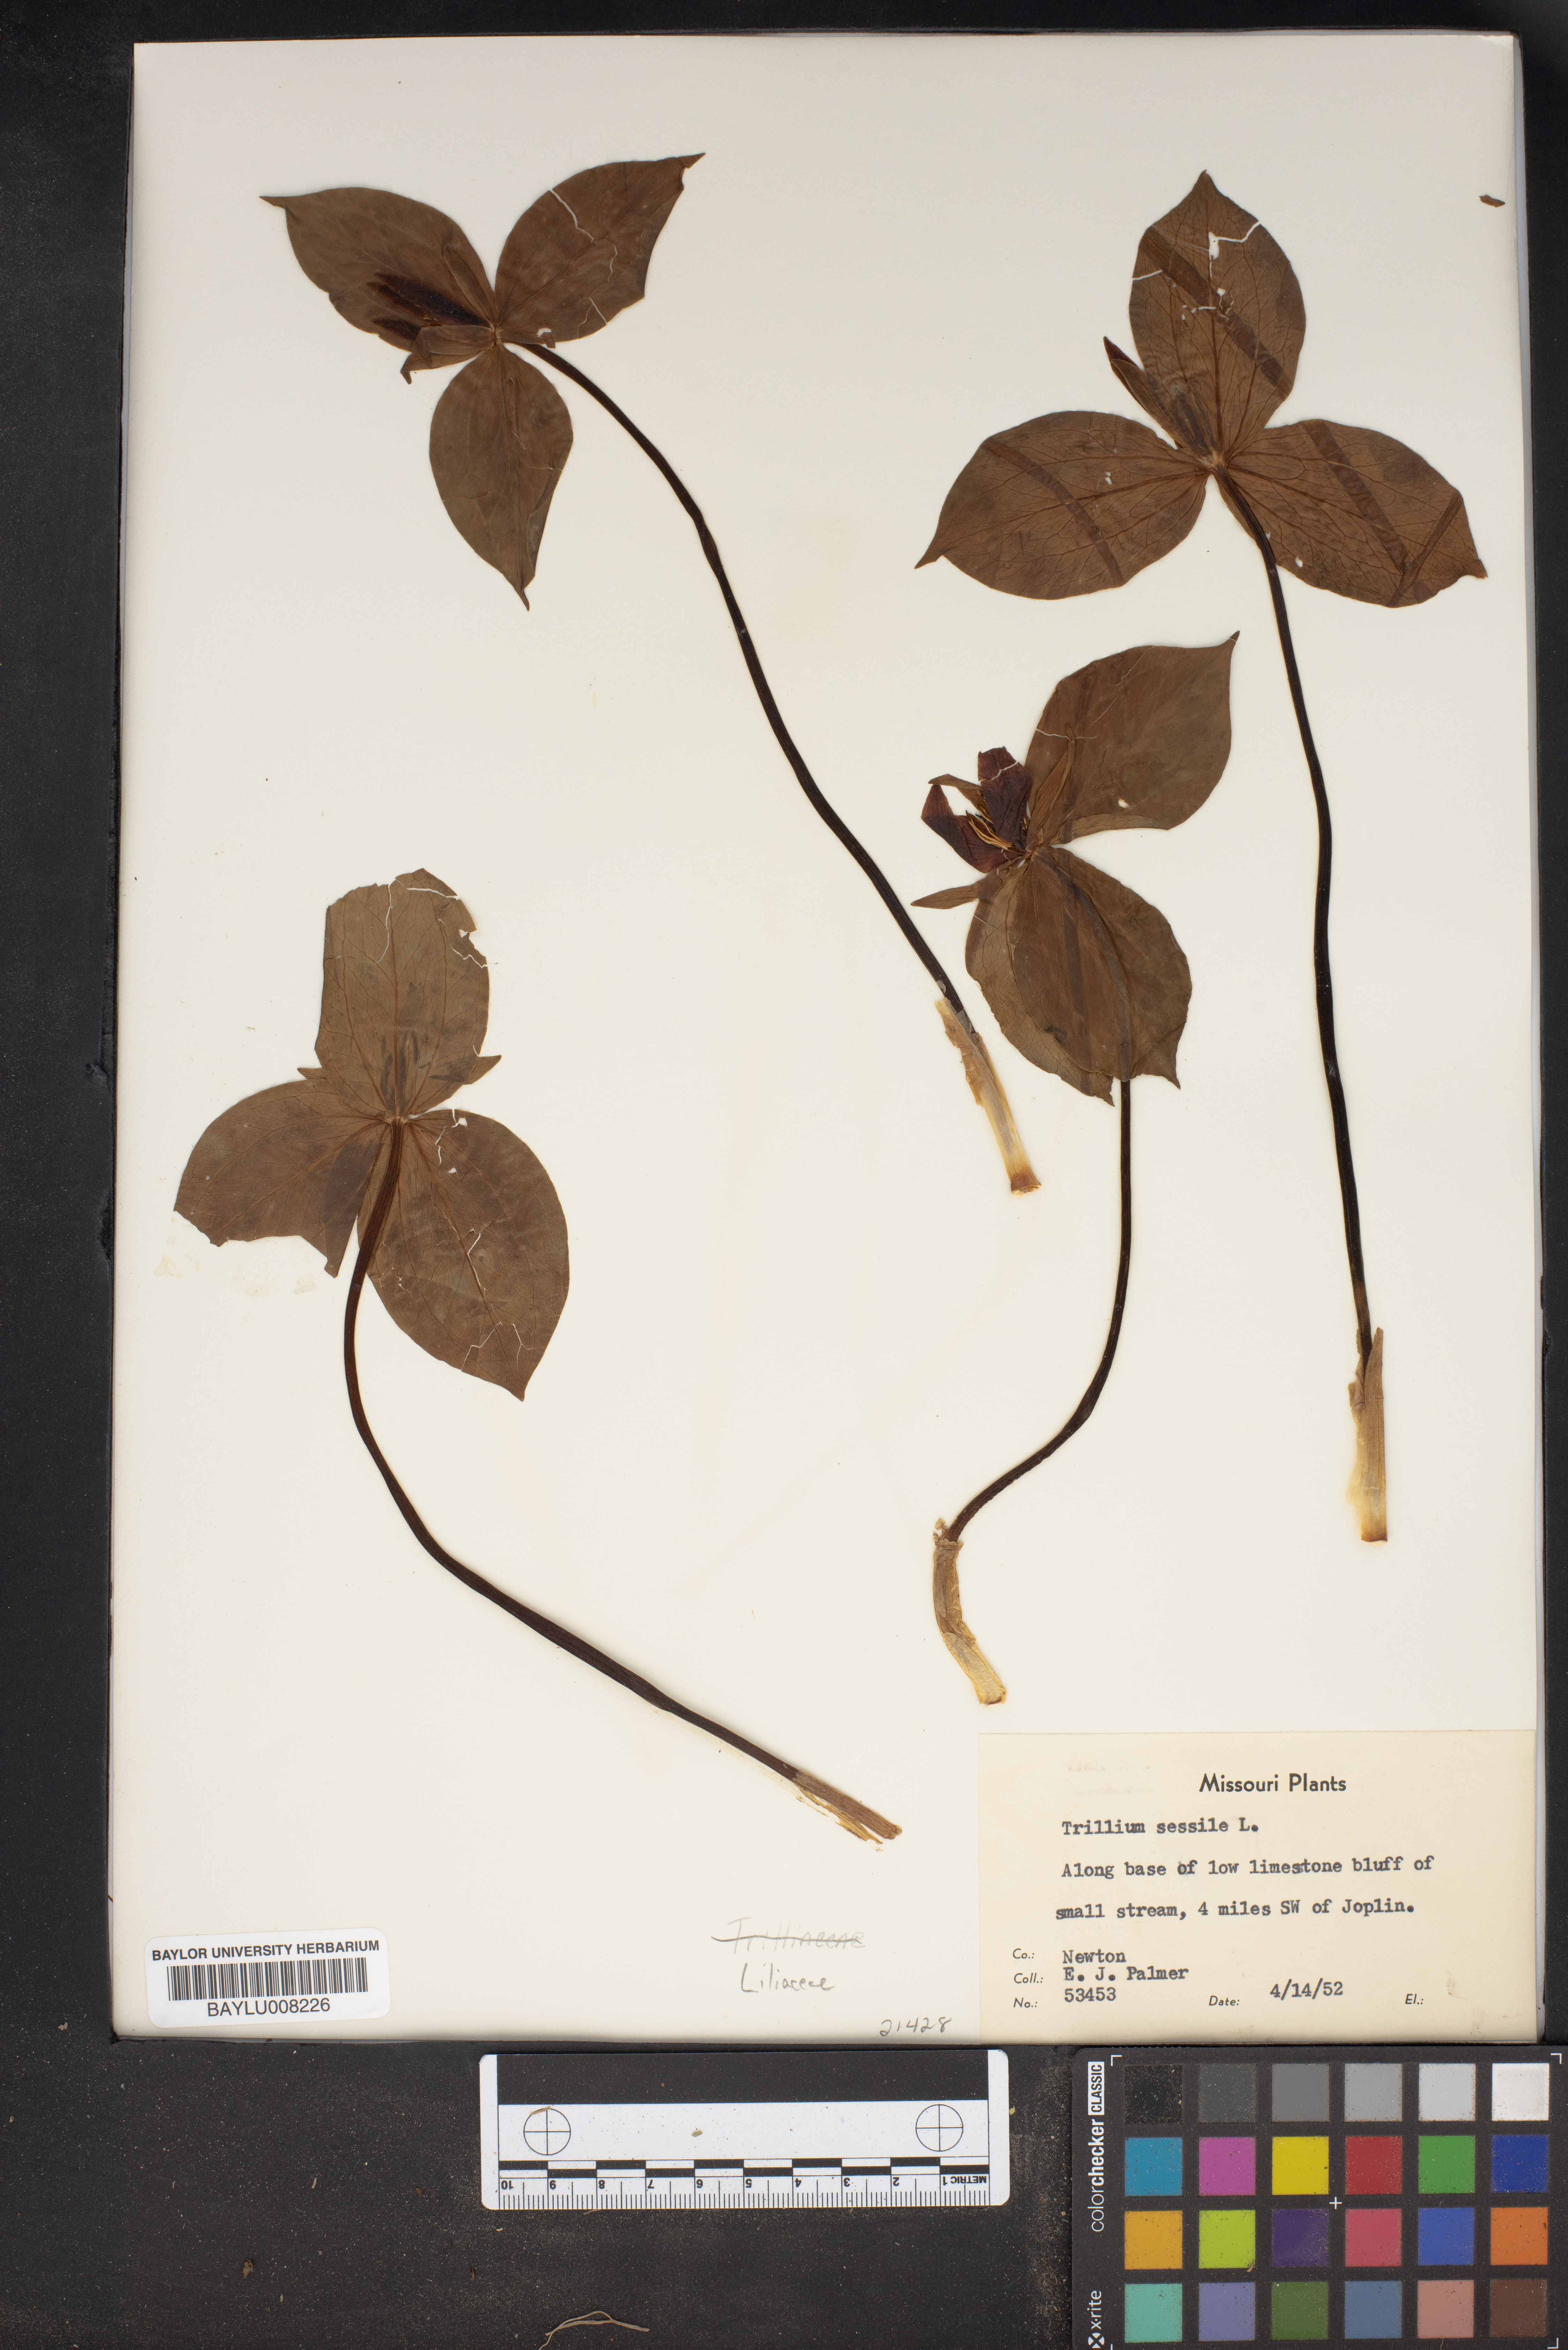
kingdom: Plantae
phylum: Tracheophyta
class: Liliopsida
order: Liliales
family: Melanthiaceae
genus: Trillium
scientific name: Trillium sessile
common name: Sessile trillium
